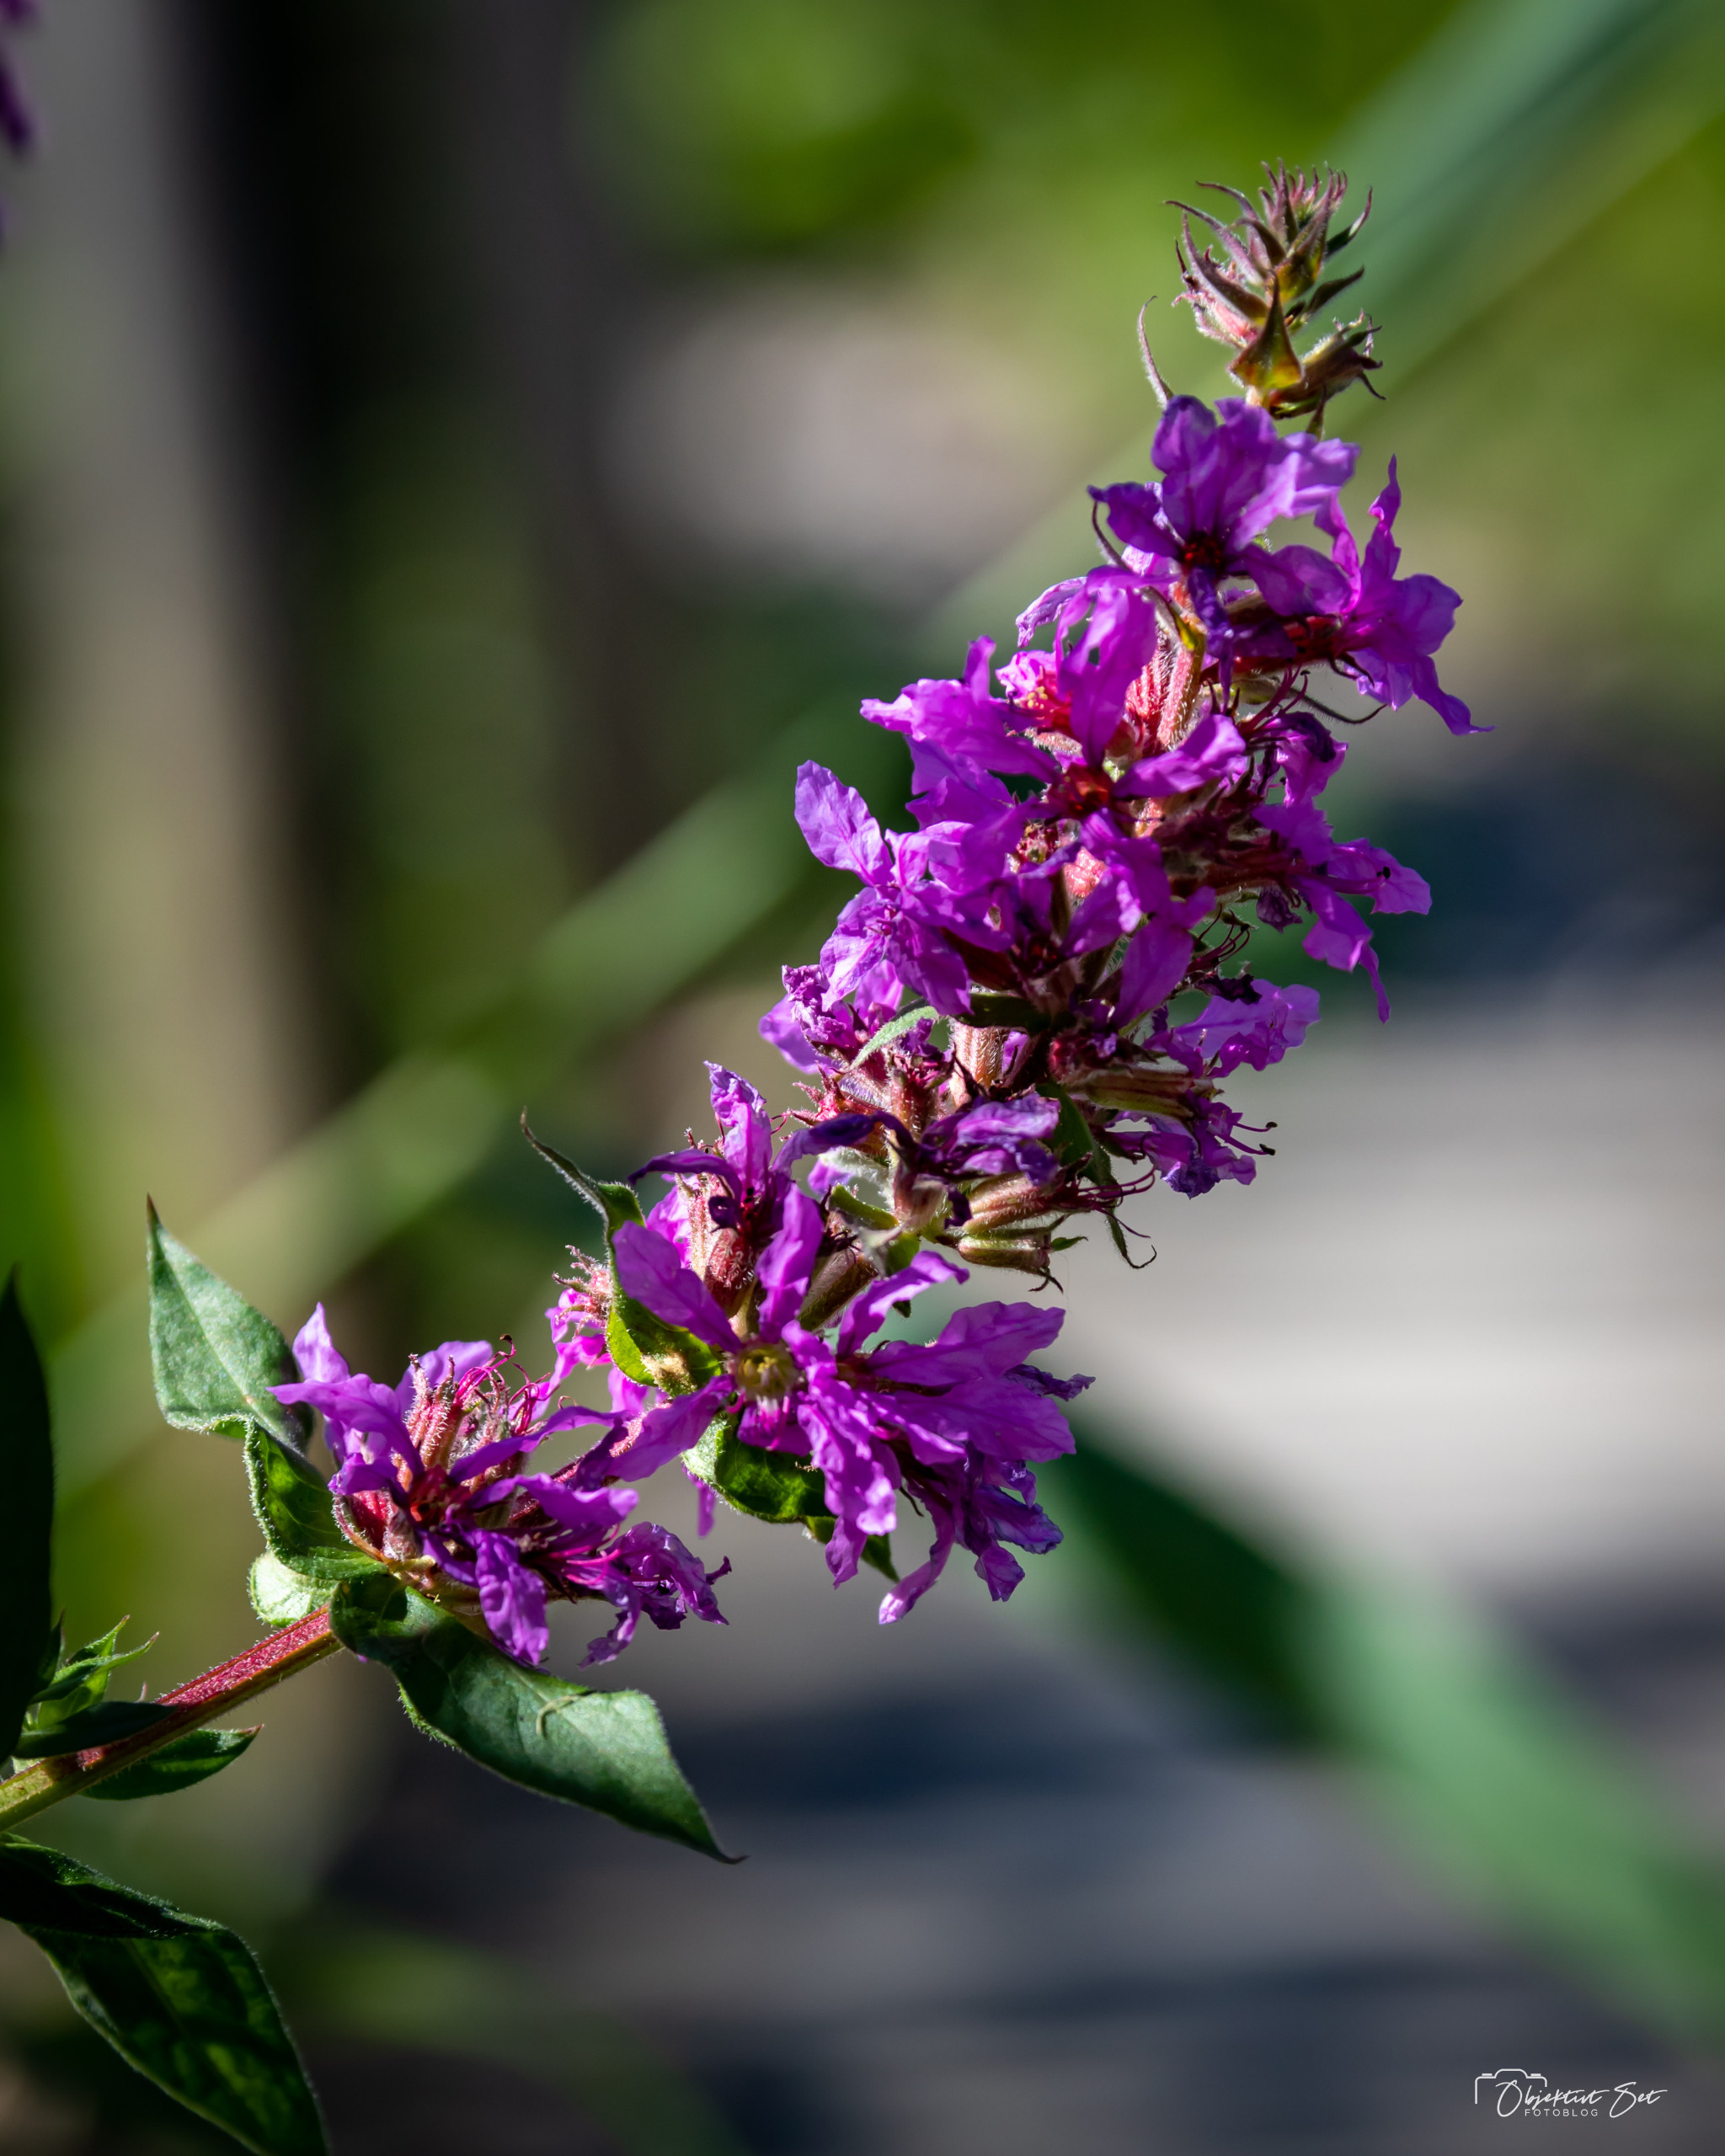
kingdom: Plantae
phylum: Tracheophyta
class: Magnoliopsida
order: Myrtales
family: Lythraceae
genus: Lythrum
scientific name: Lythrum salicaria
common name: Kattehale
